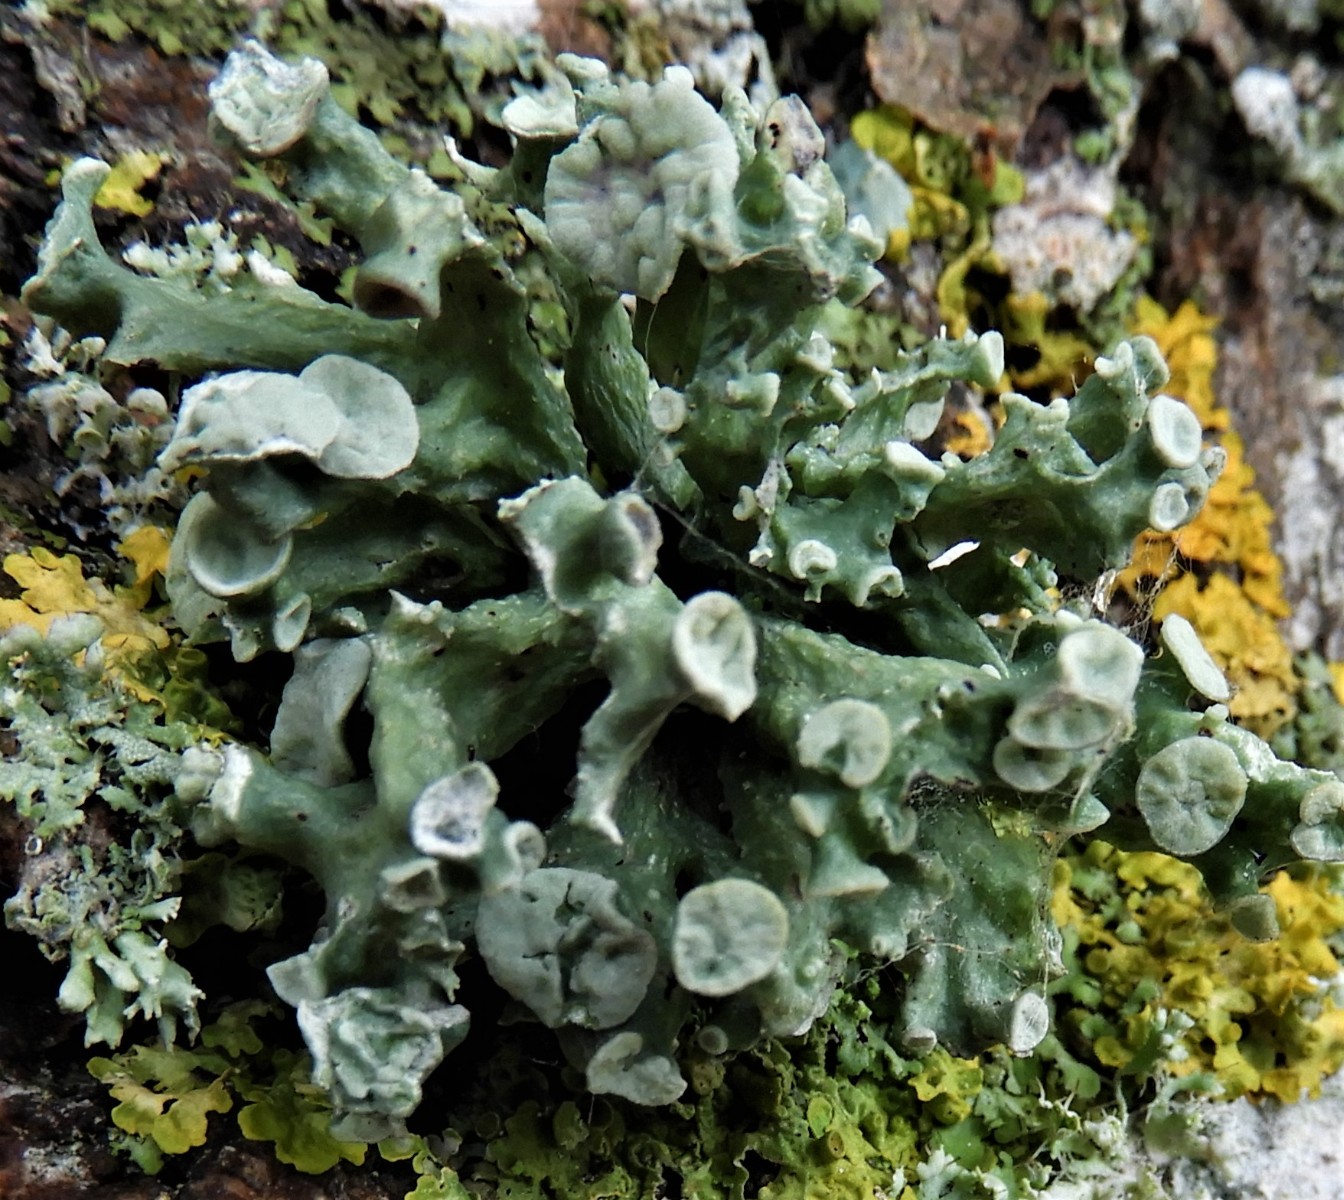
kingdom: Fungi
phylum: Ascomycota
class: Lecanoromycetes
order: Lecanorales
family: Ramalinaceae
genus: Ramalina
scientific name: Ramalina fastigiata
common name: tue-grenlav
